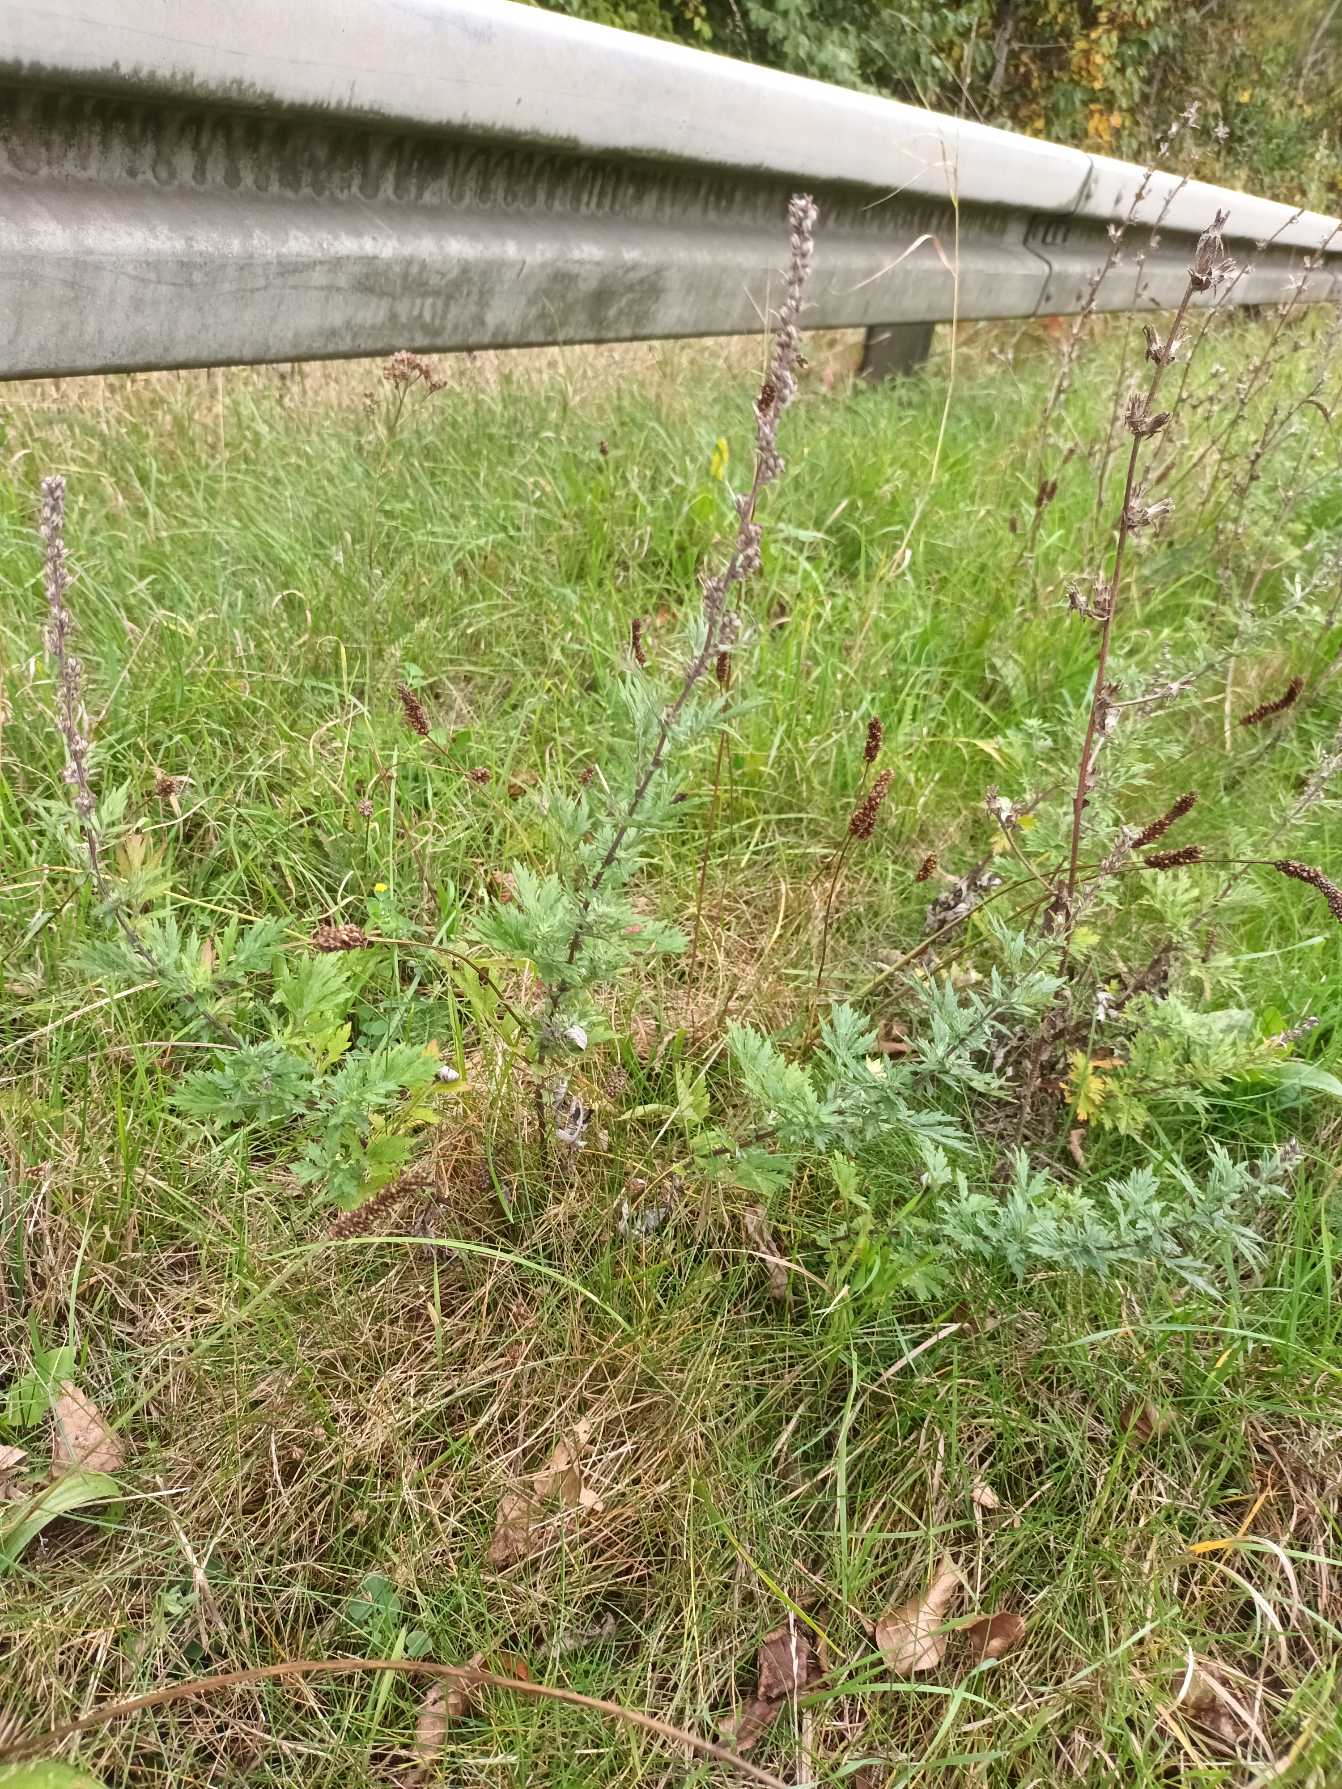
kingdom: Plantae
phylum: Tracheophyta
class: Magnoliopsida
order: Asterales
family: Asteraceae
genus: Artemisia
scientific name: Artemisia vulgaris
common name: Grå-bynke
